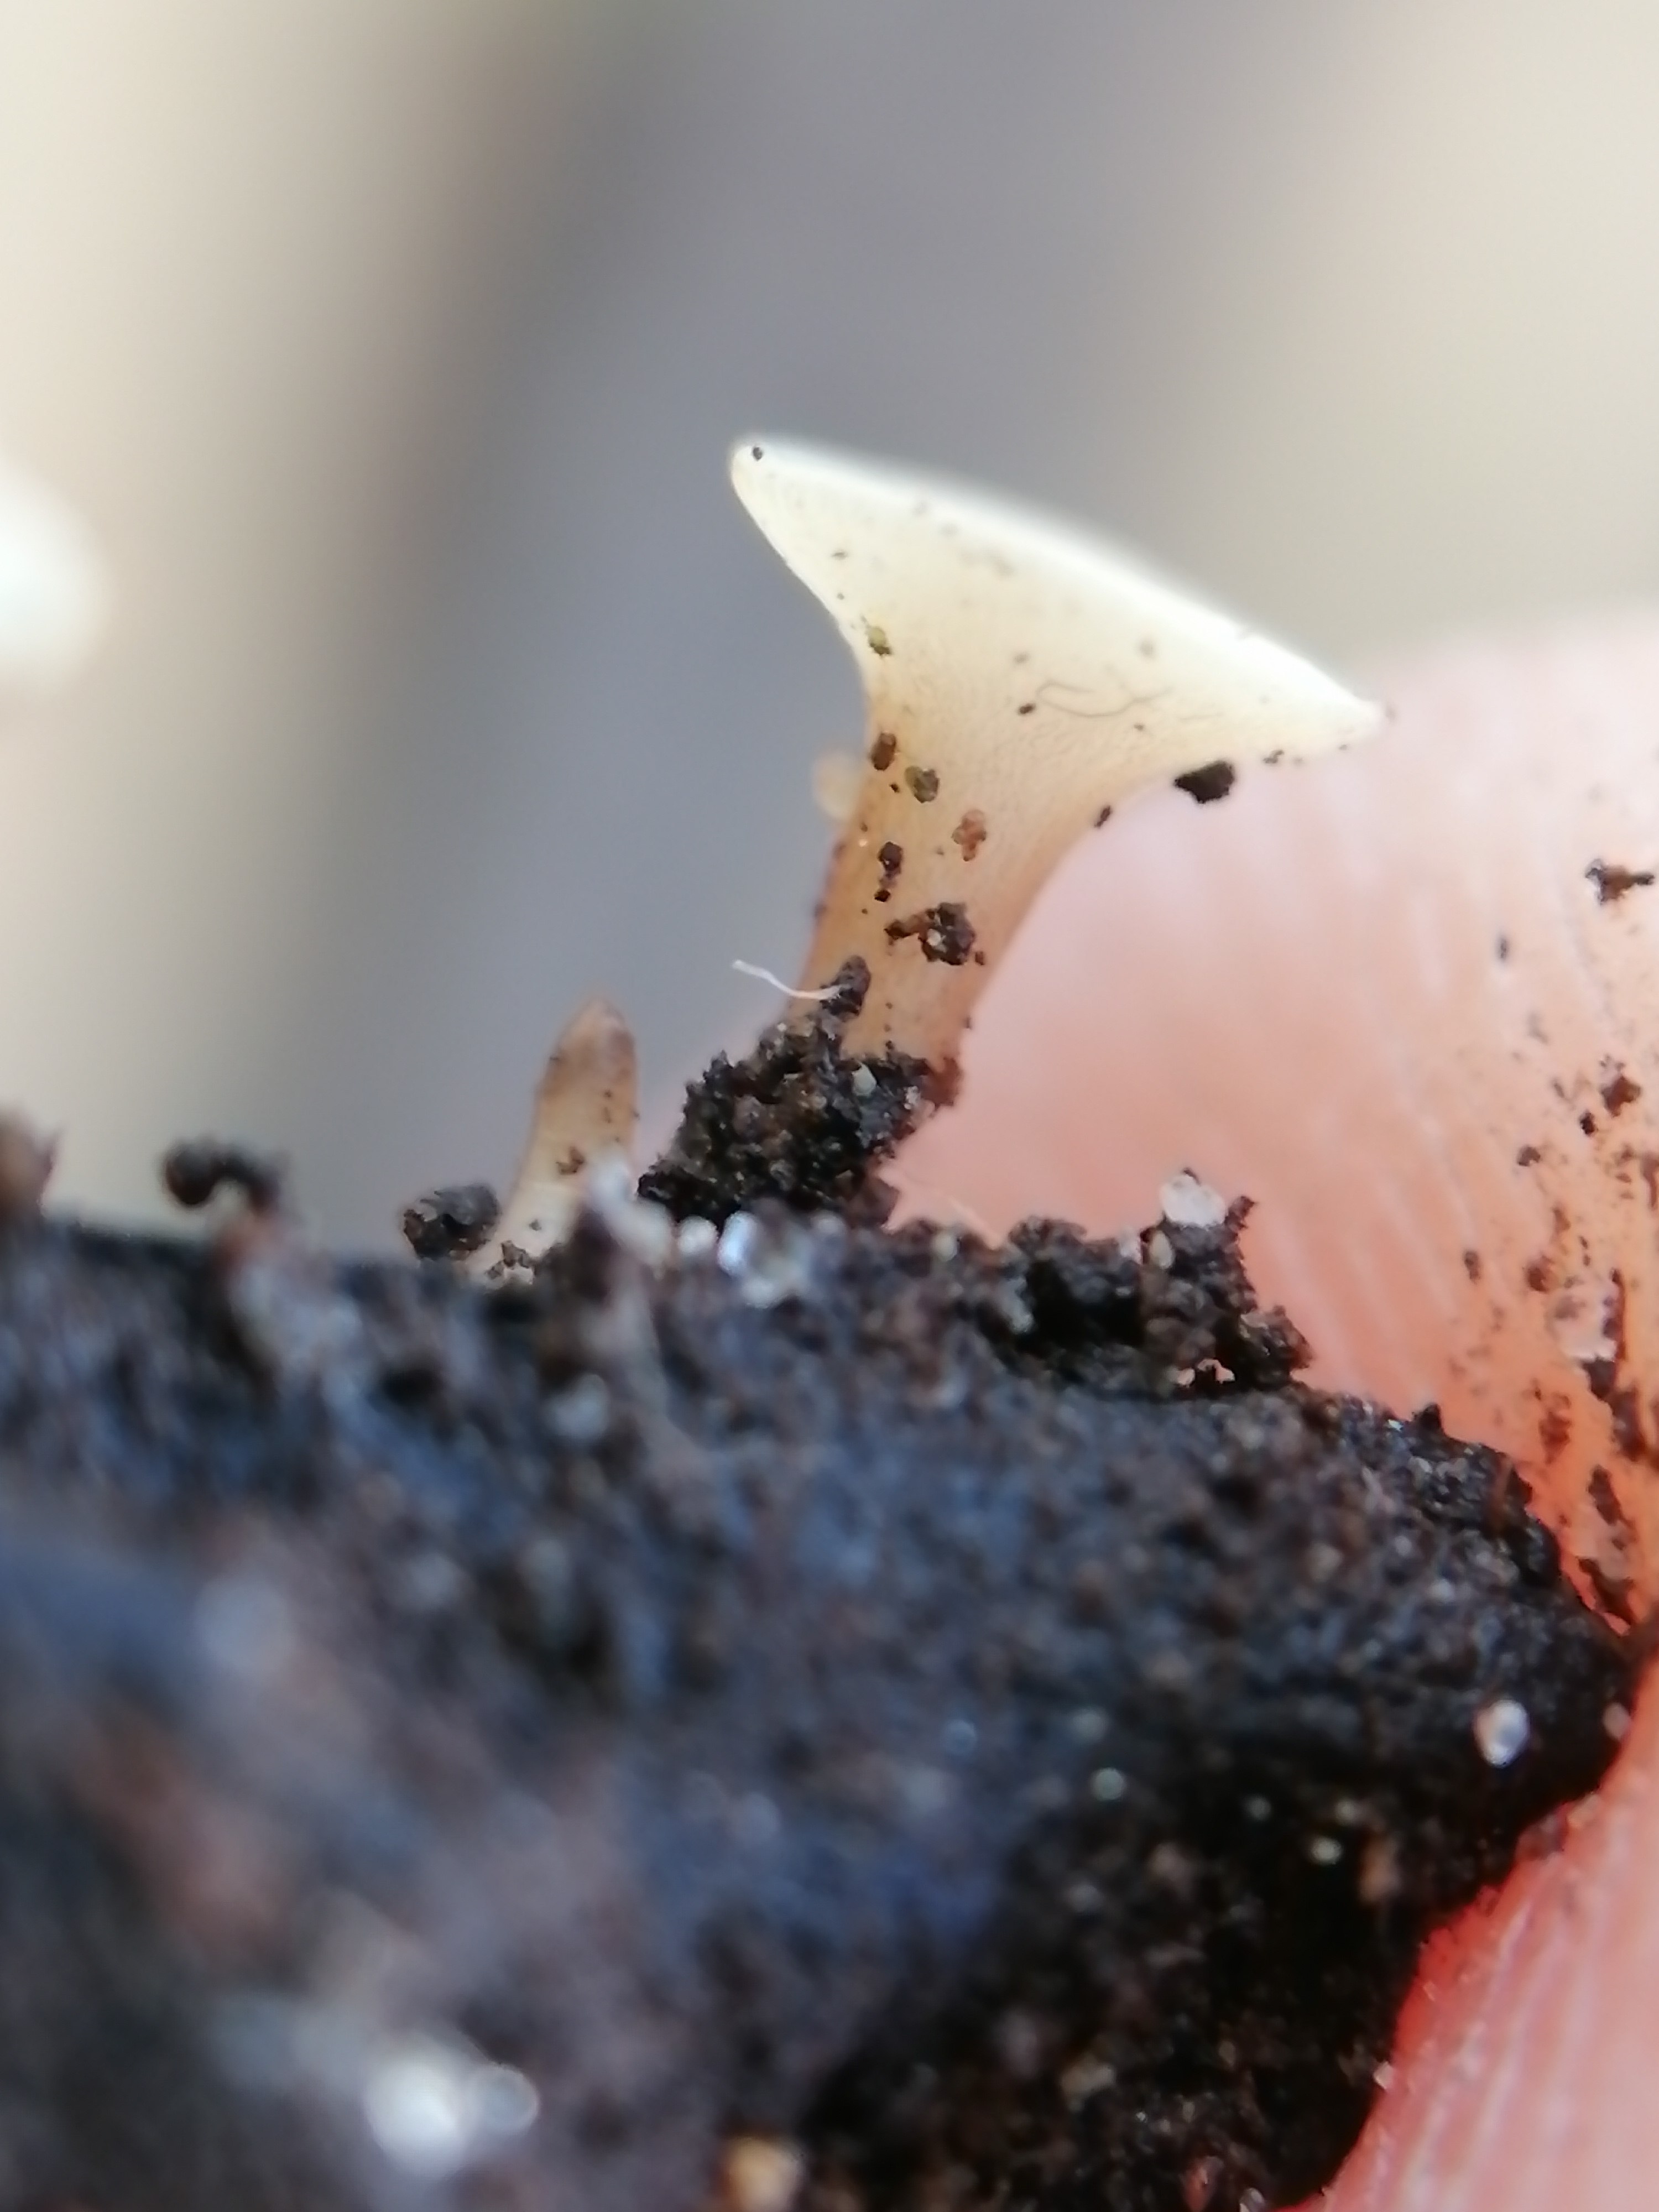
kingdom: Fungi
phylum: Ascomycota
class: Leotiomycetes
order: Helotiales
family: Helotiaceae
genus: Hymenoscyphus
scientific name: Hymenoscyphus
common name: stilkskive
